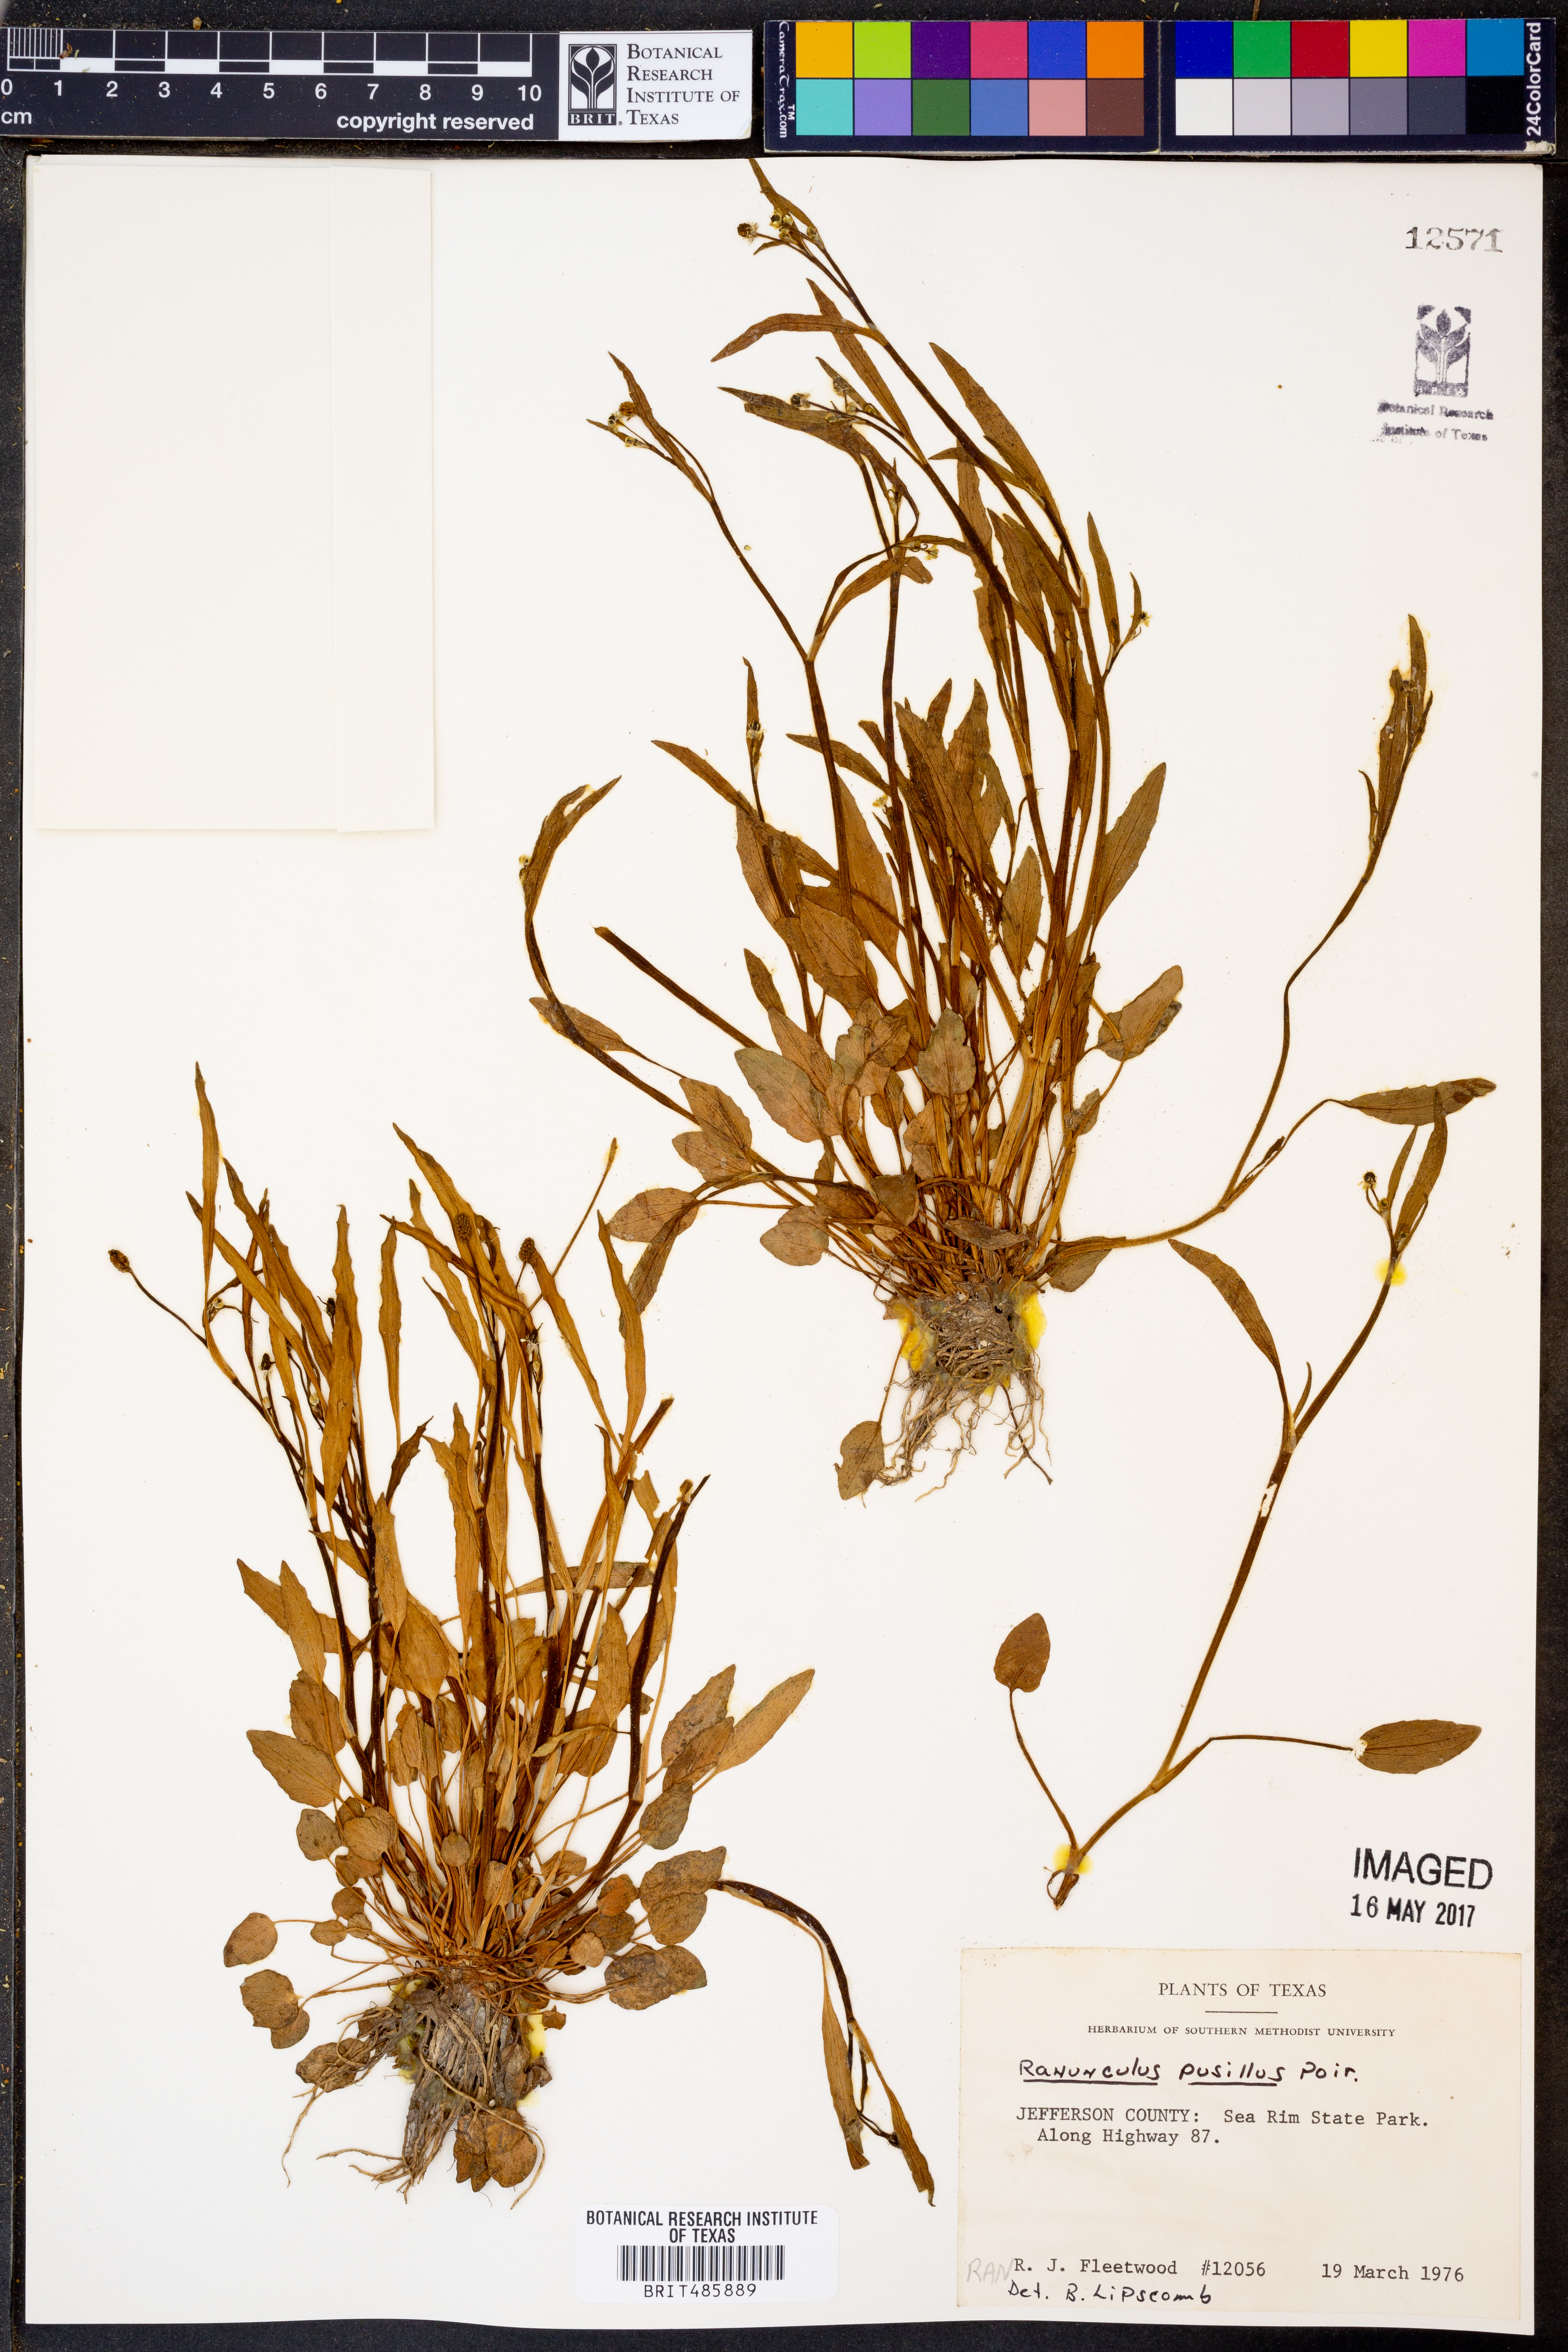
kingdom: Plantae
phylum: Tracheophyta
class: Magnoliopsida
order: Ranunculales
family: Ranunculaceae
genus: Ranunculus
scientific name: Ranunculus pusillus
